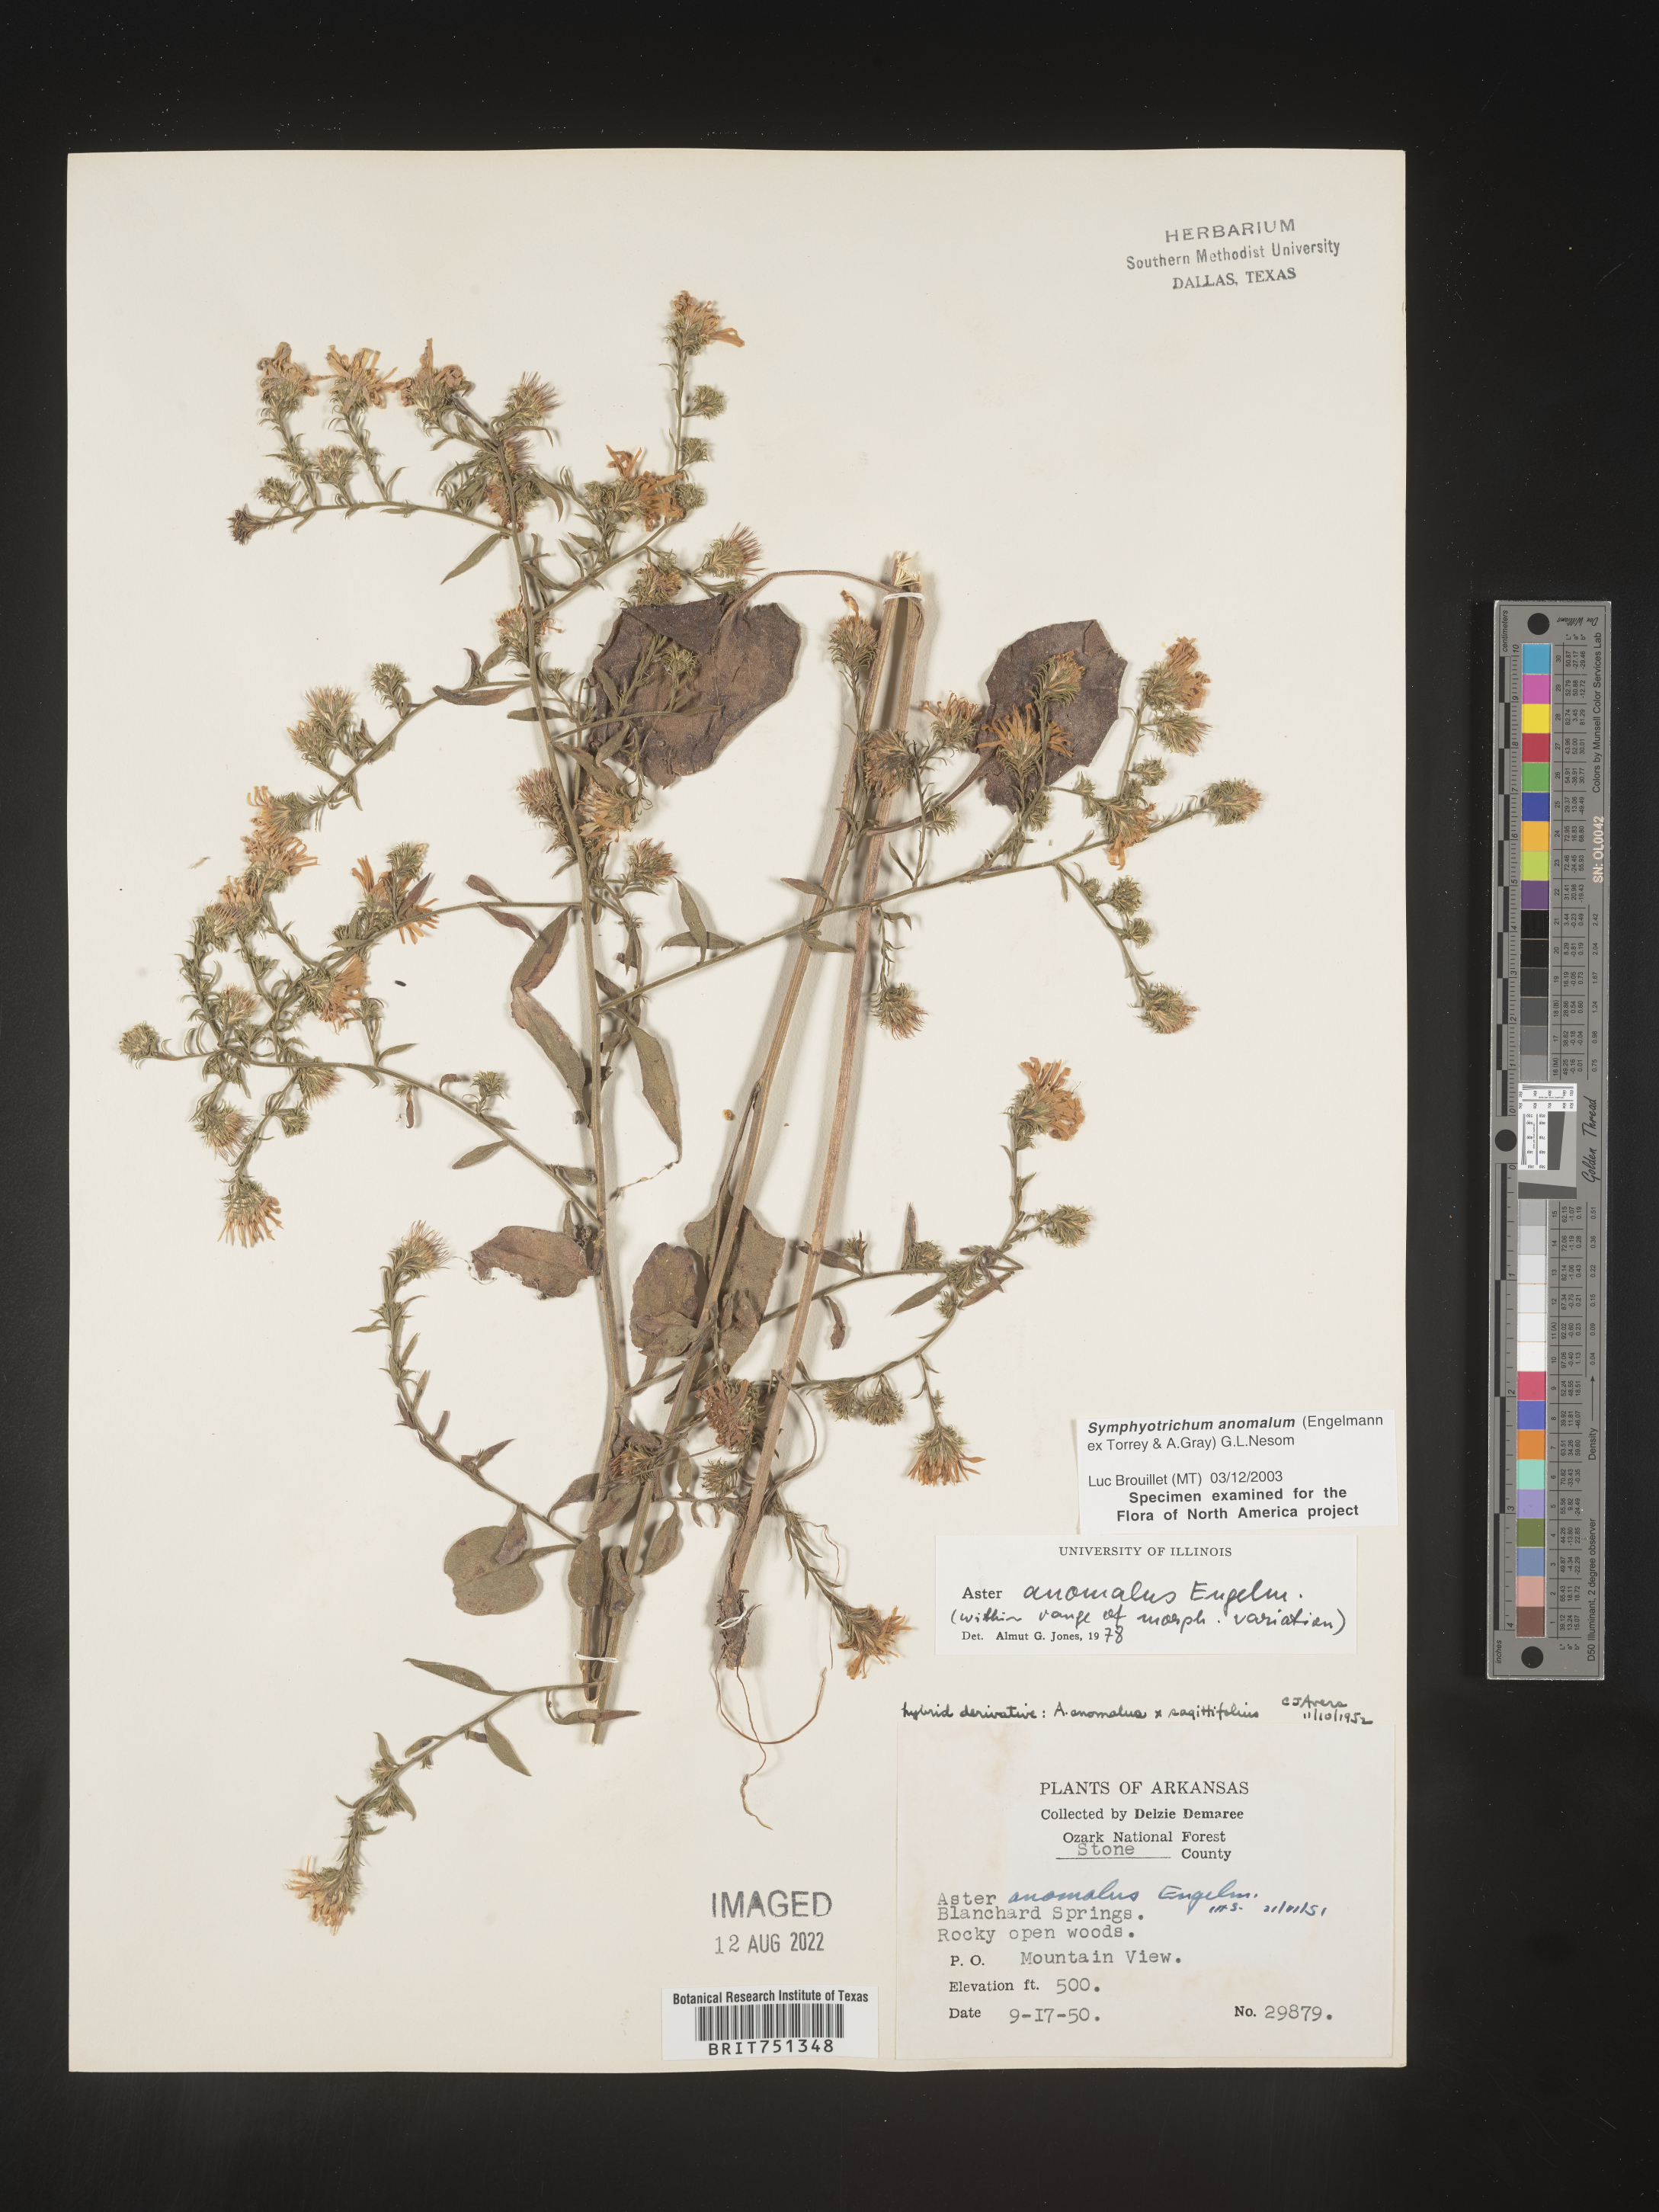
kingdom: Plantae
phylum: Tracheophyta
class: Magnoliopsida
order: Asterales
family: Asteraceae
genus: Symphyotrichum
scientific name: Symphyotrichum anomalum
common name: Many-ray aster
